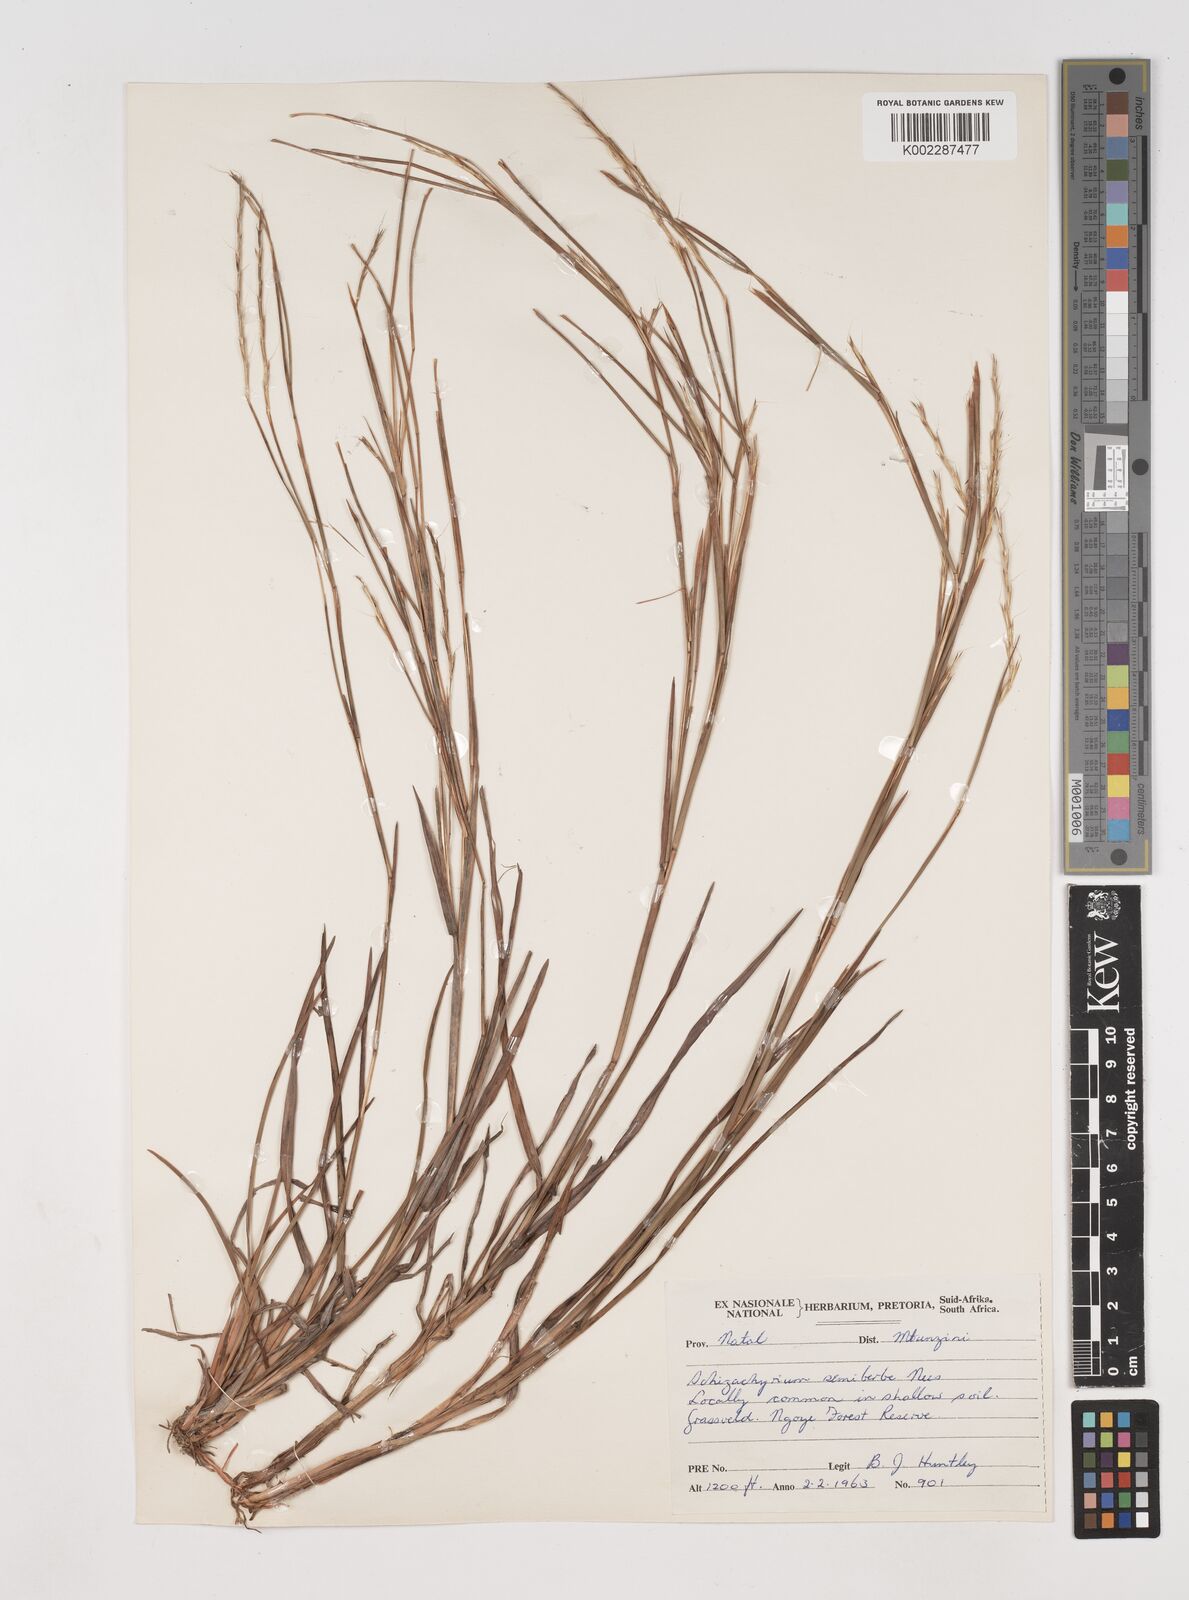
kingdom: Plantae
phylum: Tracheophyta
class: Liliopsida
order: Poales
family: Poaceae
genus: Schizachyrium
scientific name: Schizachyrium sanguineum
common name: Crimson bluestem
